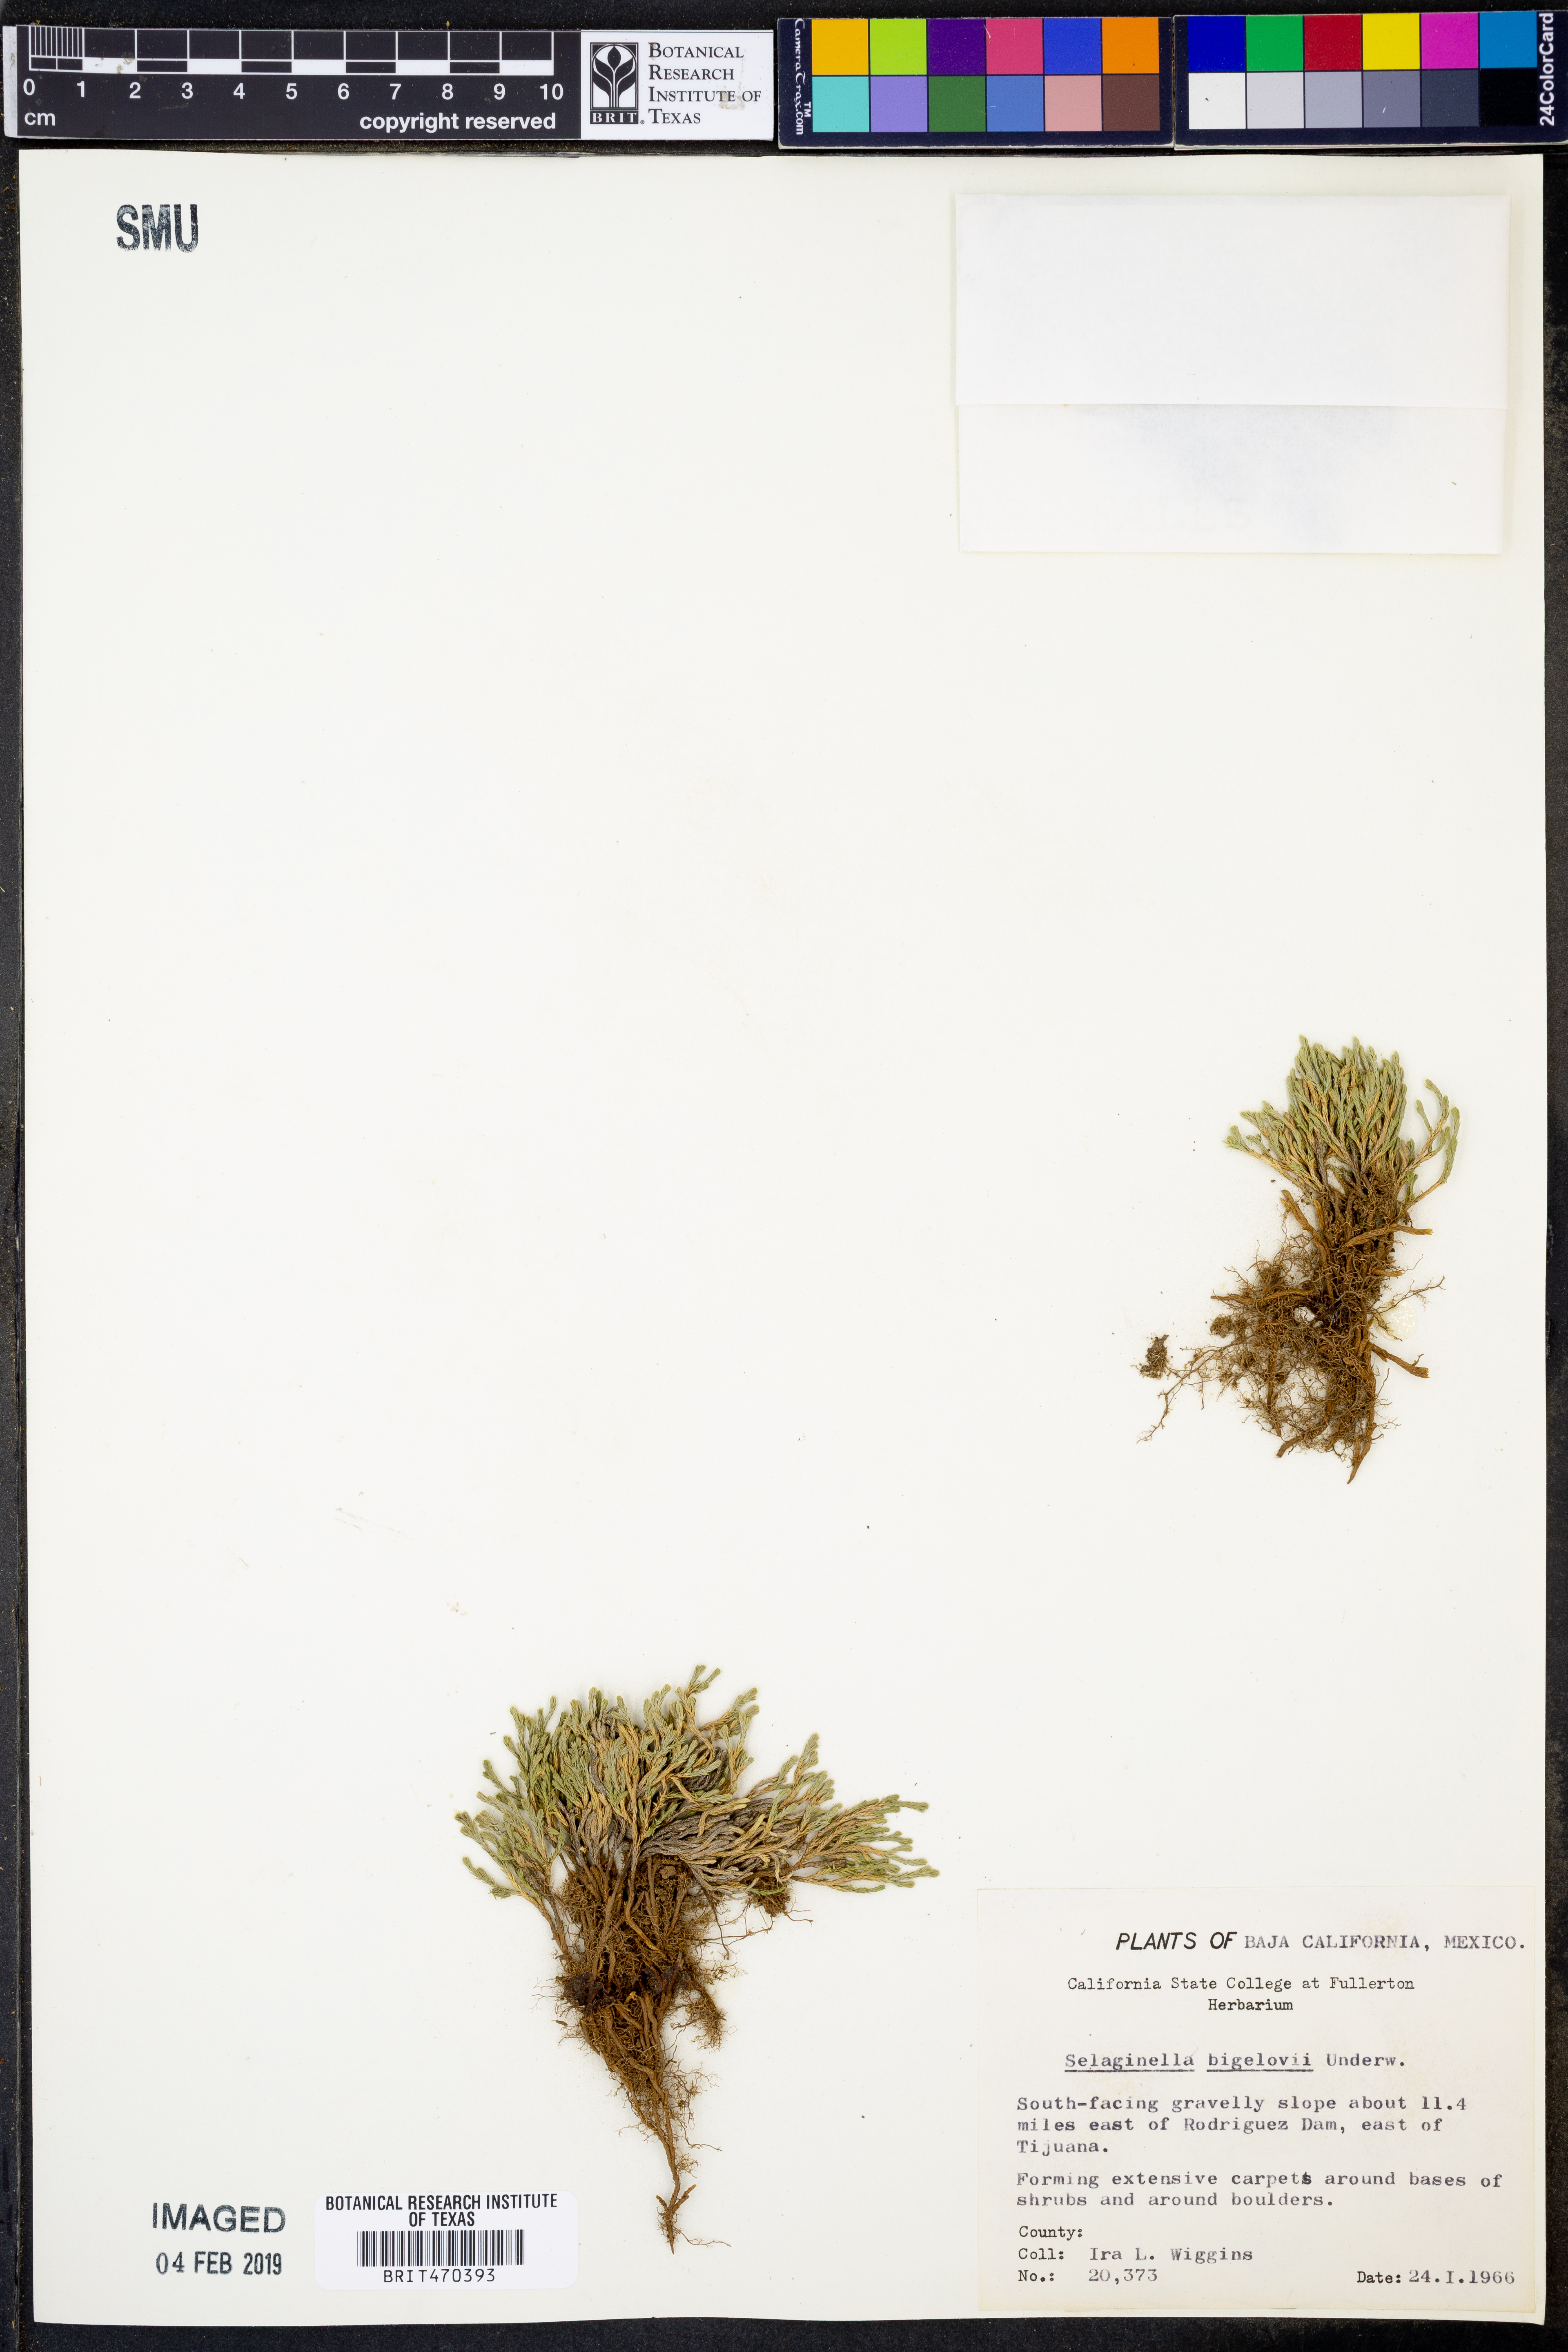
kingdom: Plantae
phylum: Tracheophyta
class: Lycopodiopsida
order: Selaginellales
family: Selaginellaceae
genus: Selaginella
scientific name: Selaginella bigelovii
